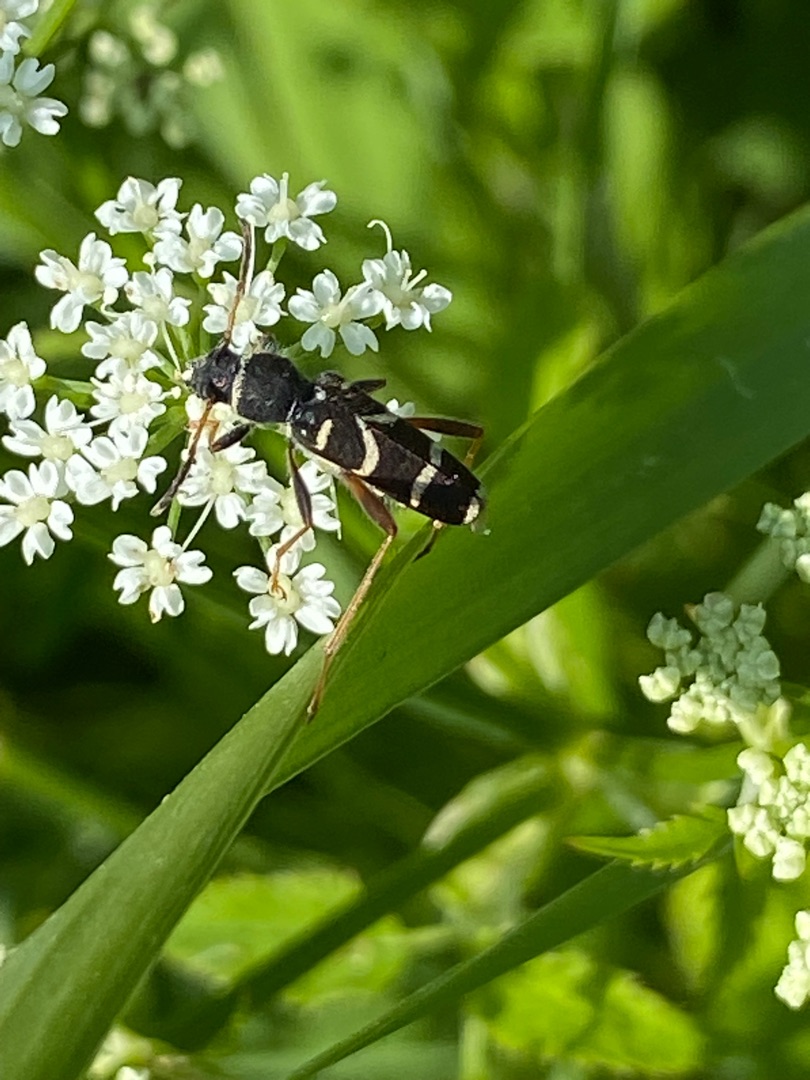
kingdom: Animalia
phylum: Arthropoda
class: Insecta
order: Coleoptera
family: Cerambycidae
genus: Clytus
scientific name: Clytus arietis
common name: Lille hvepsebuk
